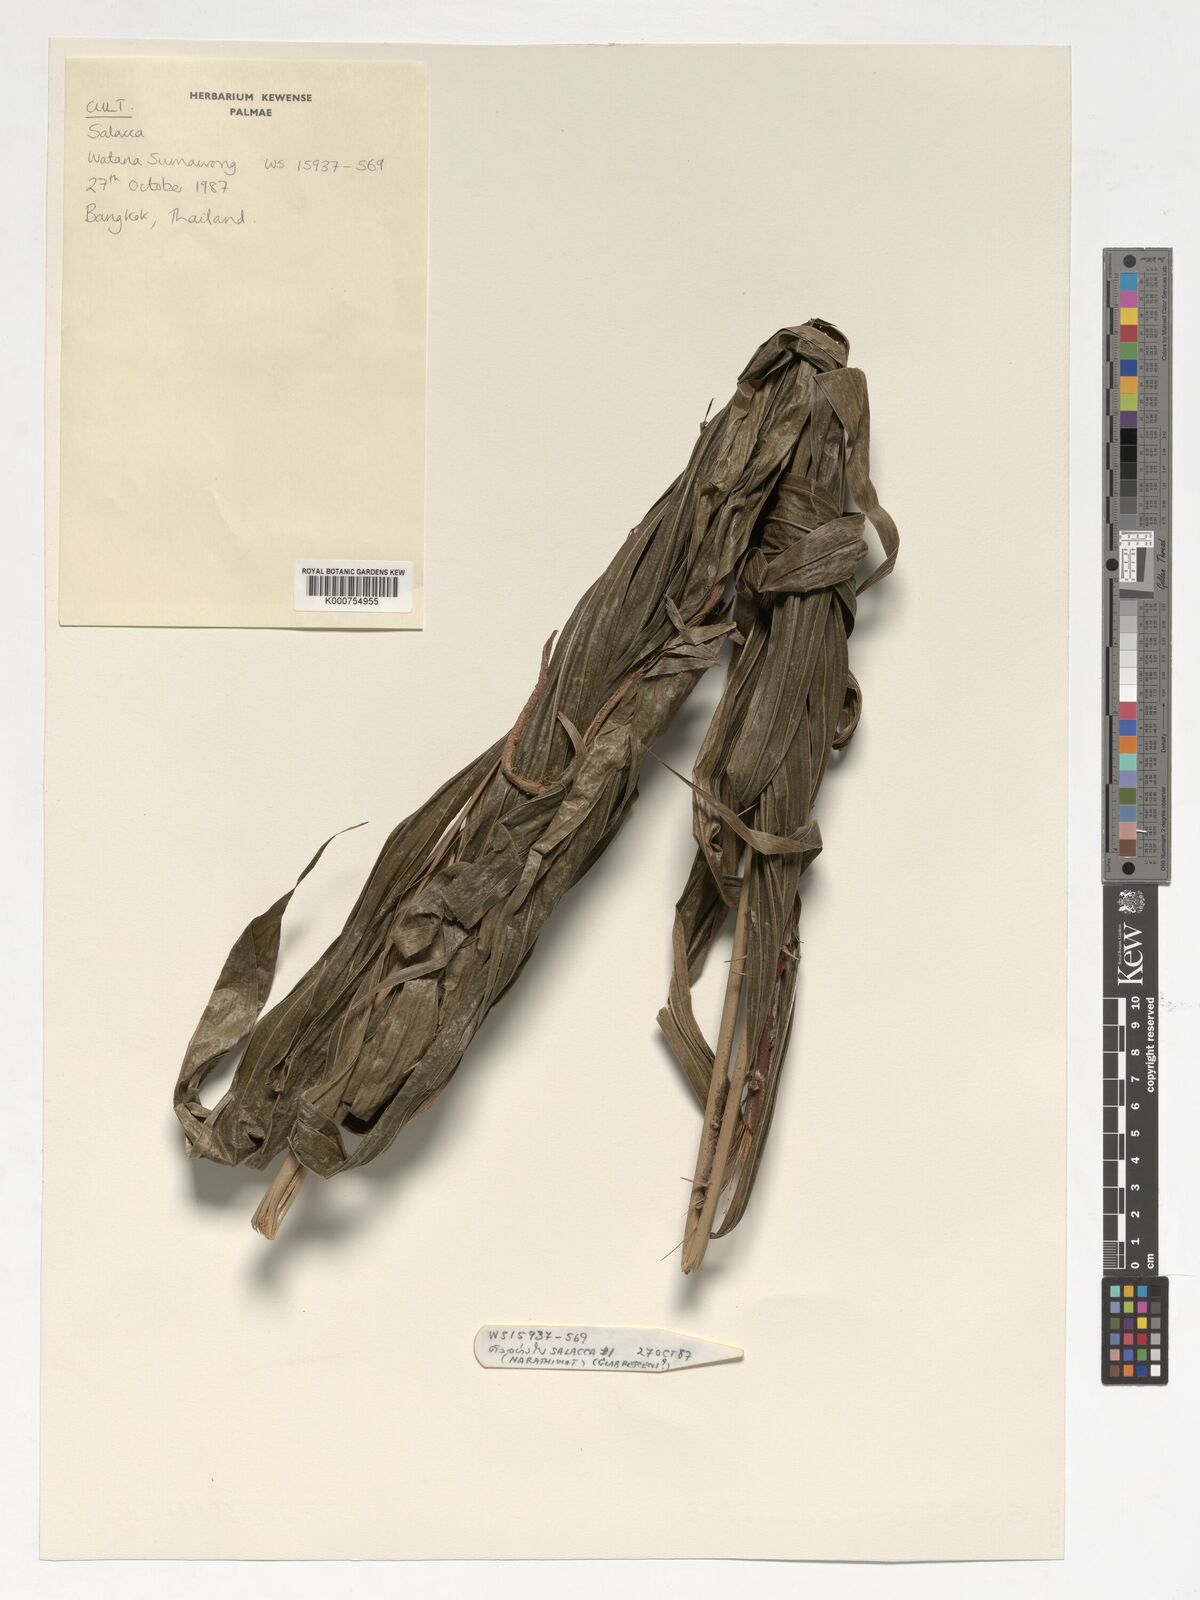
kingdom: Plantae
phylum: Tracheophyta
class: Liliopsida
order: Arecales
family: Arecaceae
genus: Salacca
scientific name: Salacca
